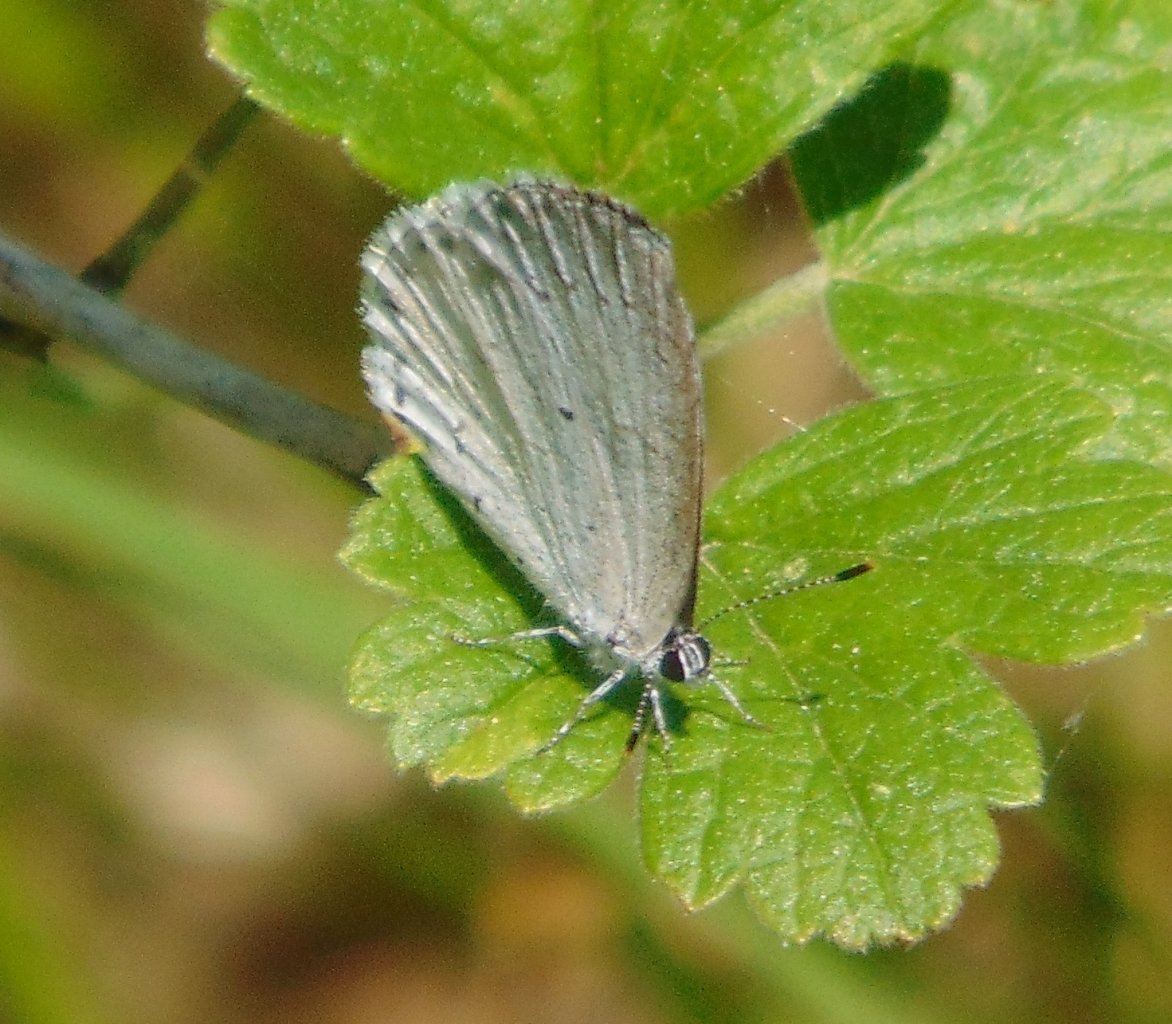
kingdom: Animalia
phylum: Arthropoda
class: Insecta
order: Lepidoptera
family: Lycaenidae
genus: Cyaniris
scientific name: Cyaniris neglecta
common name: Summer Azure
